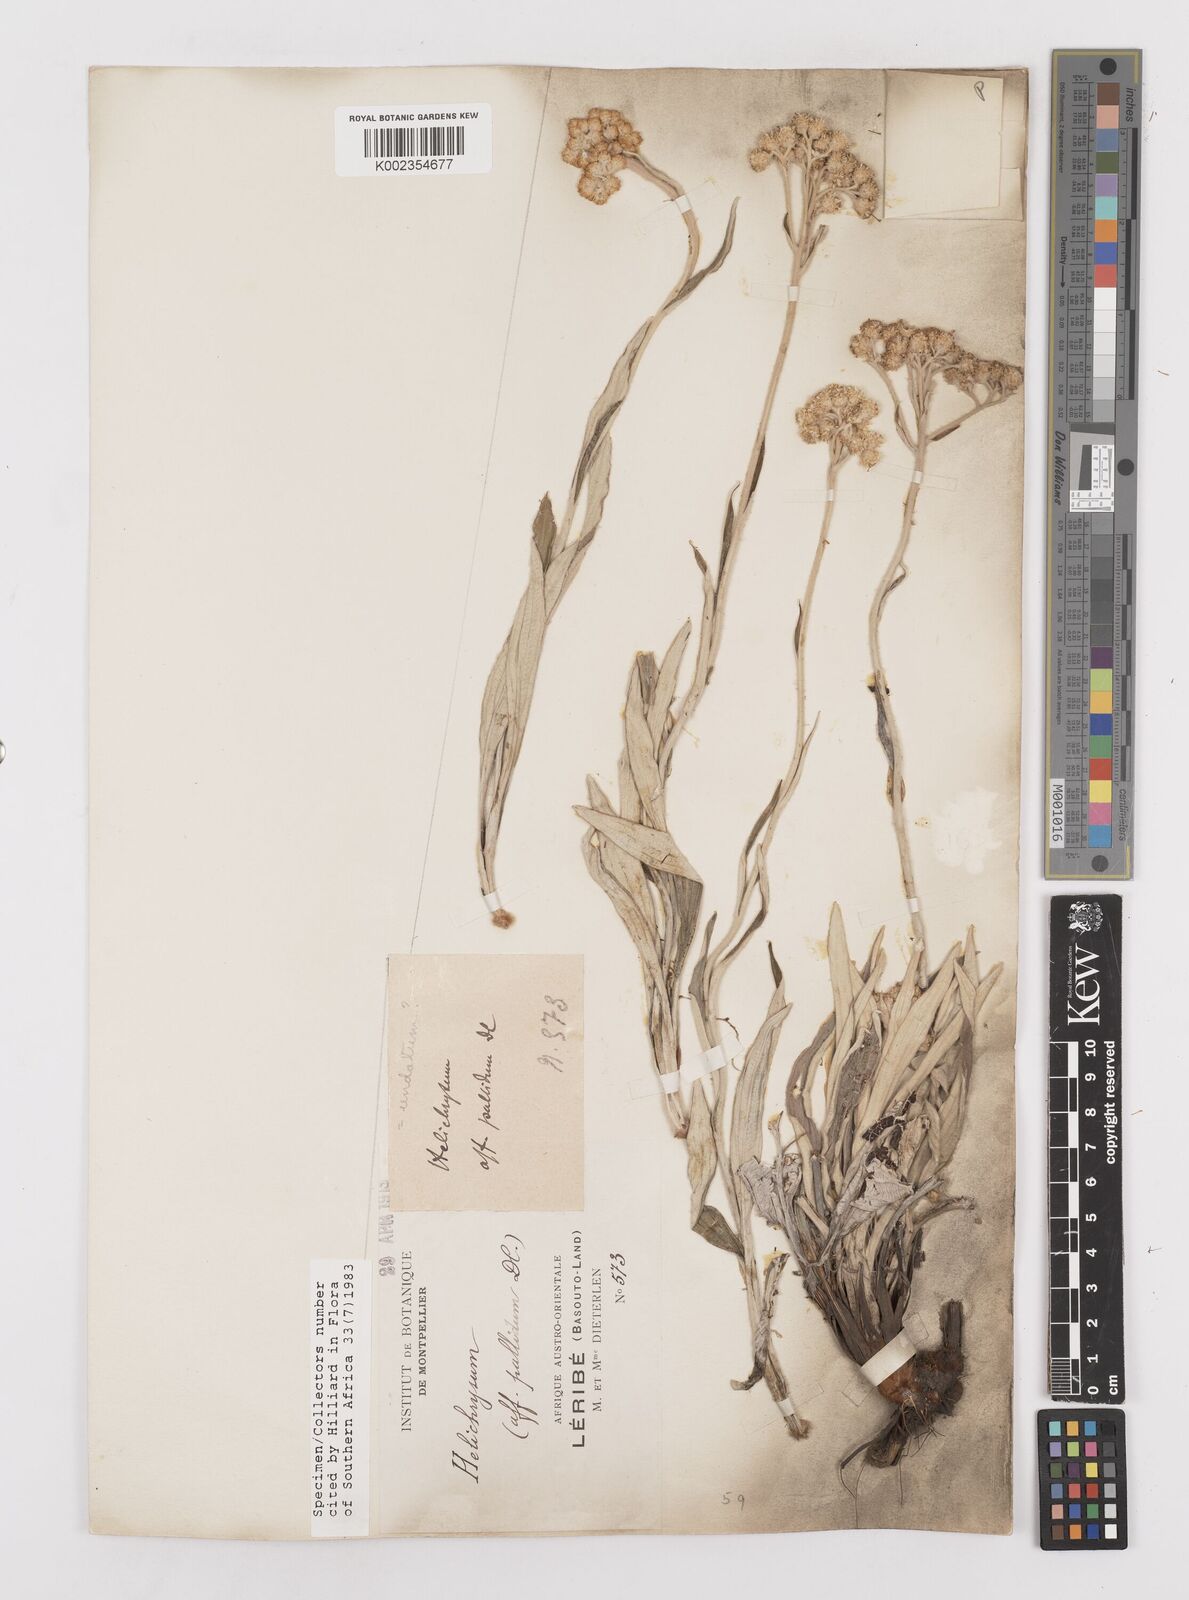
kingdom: Plantae
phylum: Tracheophyta
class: Magnoliopsida
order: Asterales
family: Asteraceae
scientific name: Asteraceae
